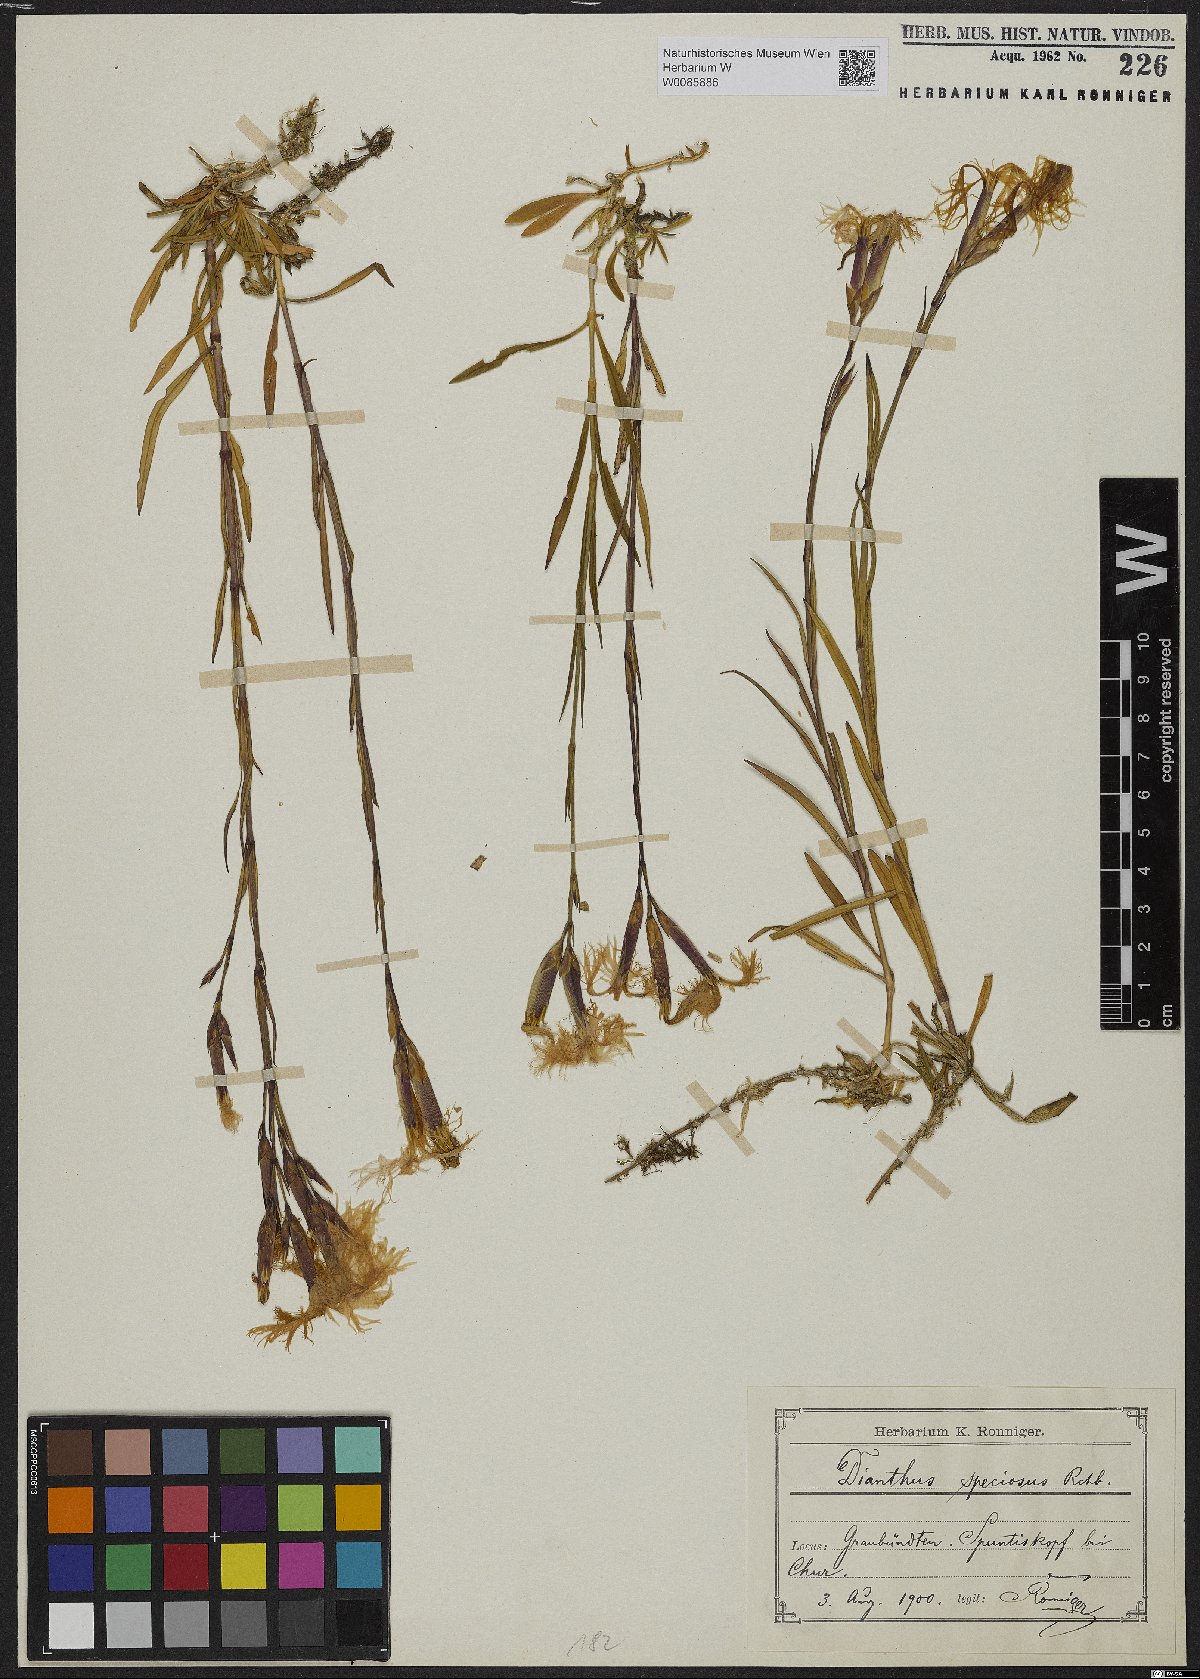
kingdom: Plantae
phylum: Tracheophyta
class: Magnoliopsida
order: Caryophyllales
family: Caryophyllaceae
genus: Dianthus
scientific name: Dianthus superbus
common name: Fringed pink
